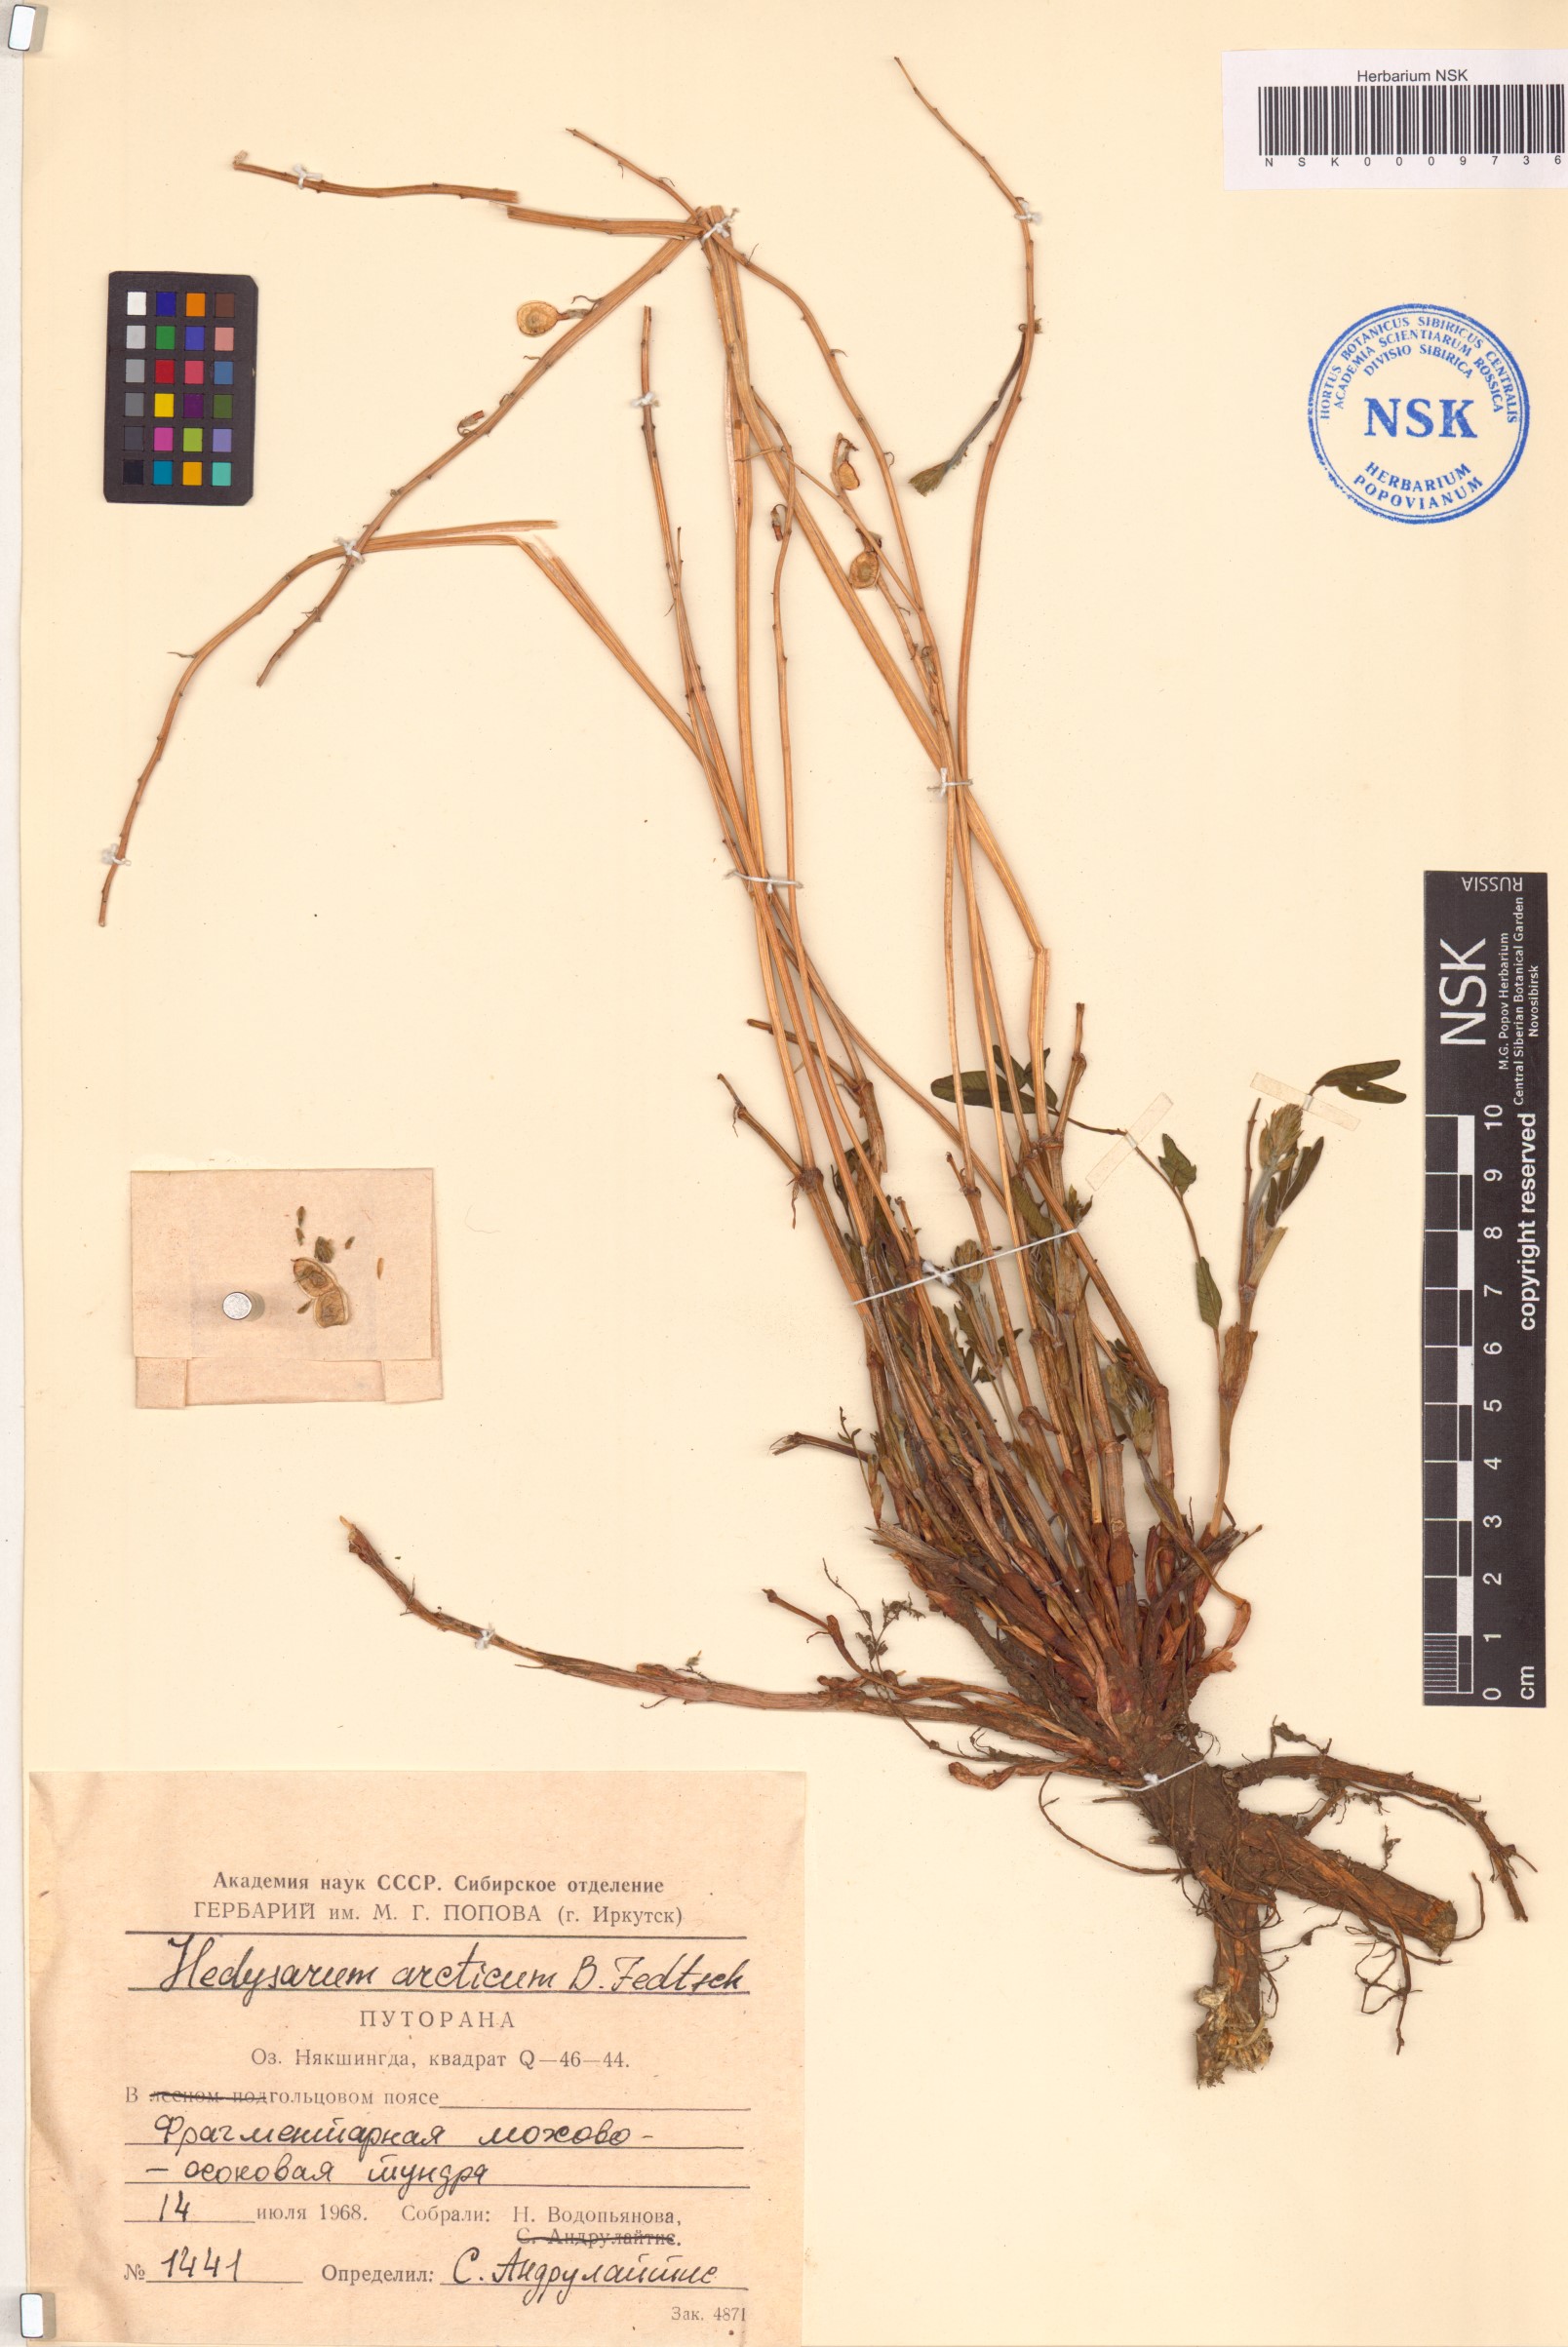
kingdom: Plantae
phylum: Tracheophyta
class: Magnoliopsida
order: Fabales
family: Fabaceae
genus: Hedysarum
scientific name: Hedysarum hedysaroides
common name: Alpine french-honeysuckle
